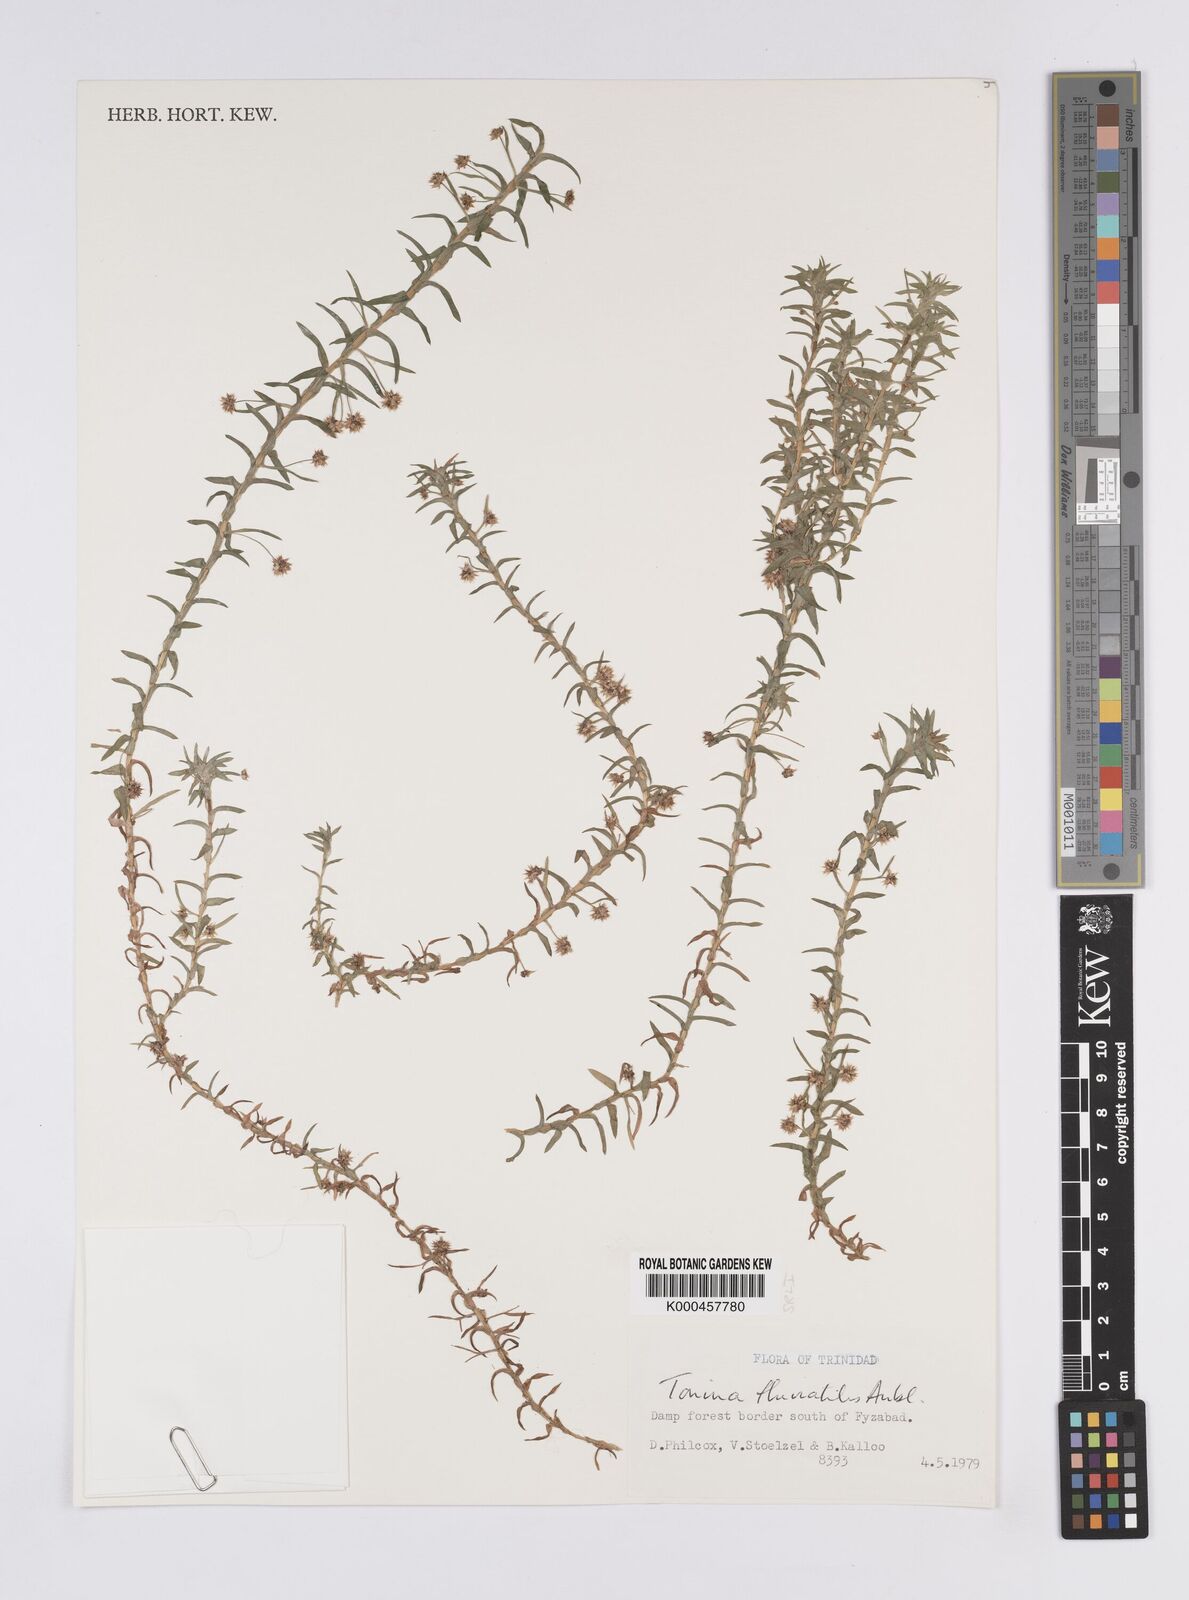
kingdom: Plantae
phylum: Tracheophyta
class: Liliopsida
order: Poales
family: Eriocaulaceae
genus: Paepalanthus
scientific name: Paepalanthus fluviatilis
